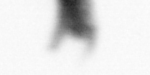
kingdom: Animalia
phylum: Arthropoda
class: Copepoda
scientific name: Copepoda
